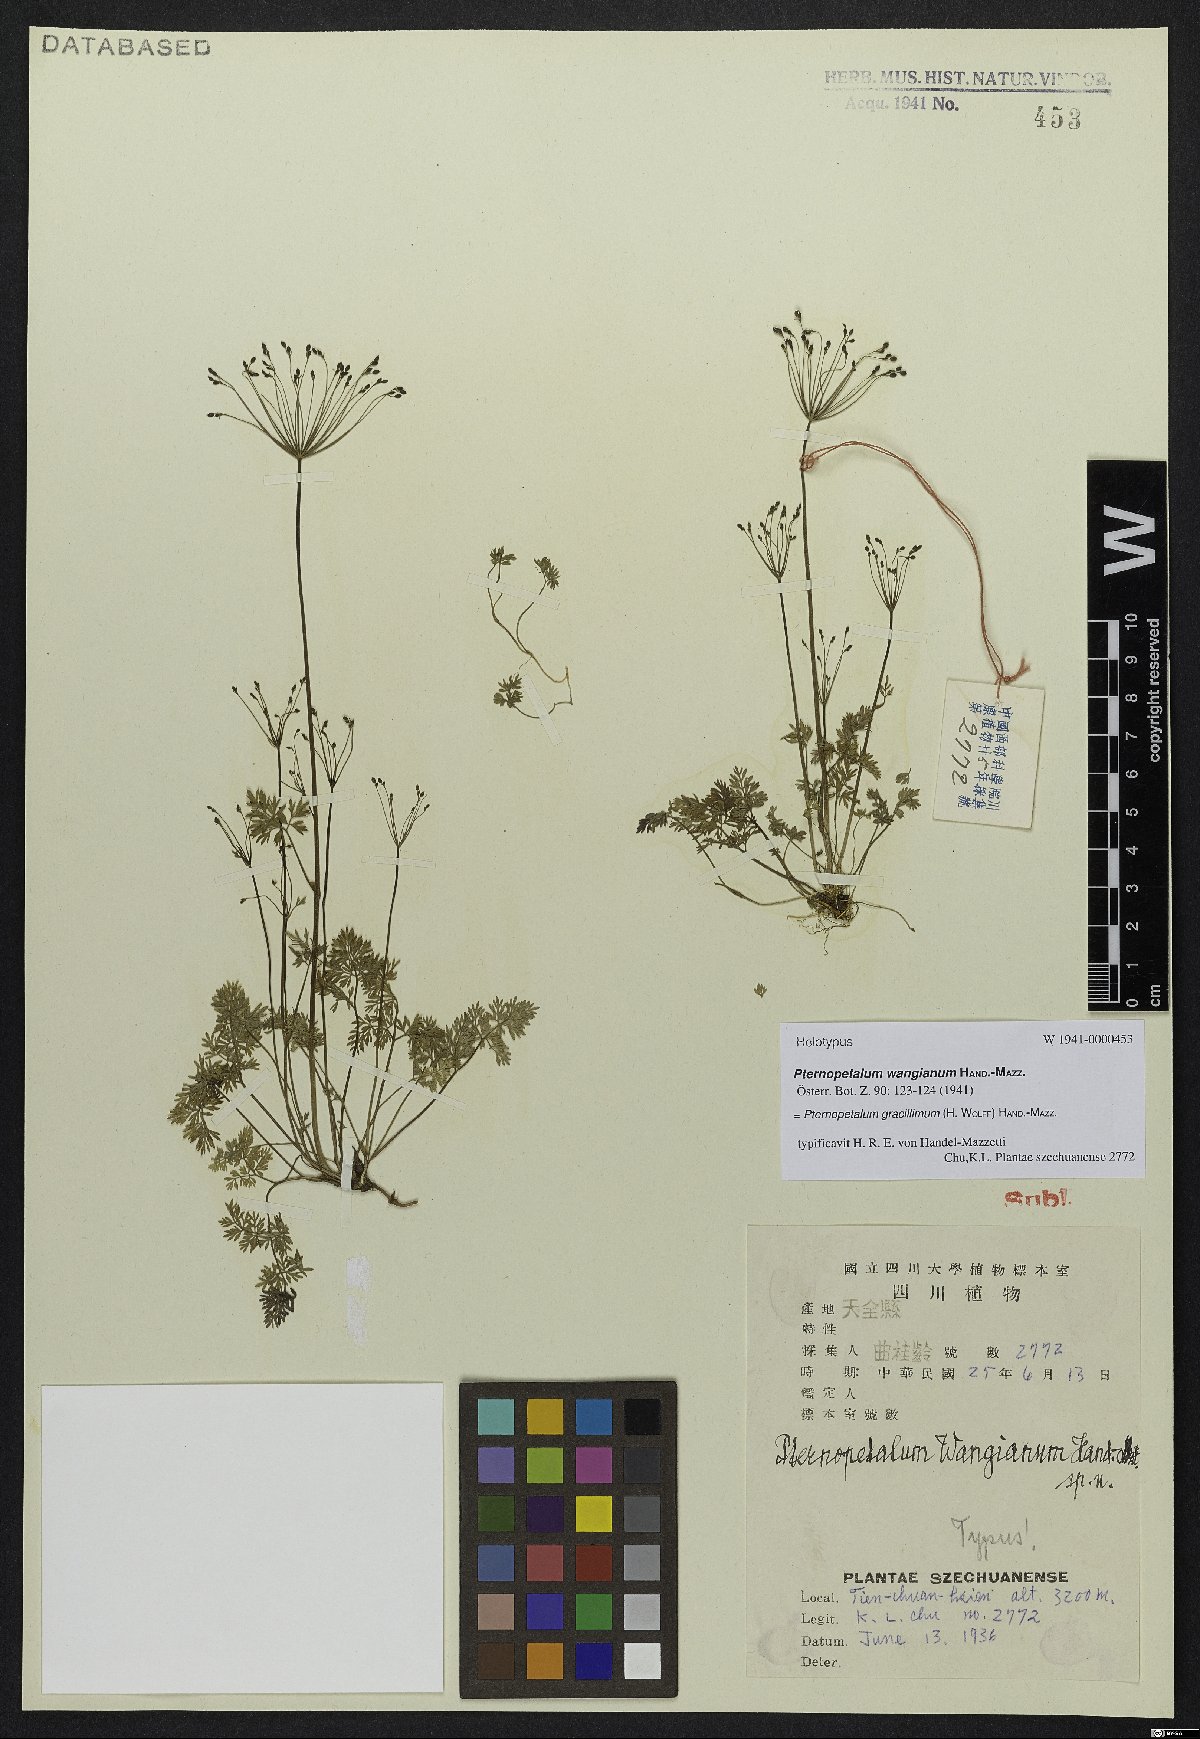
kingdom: Plantae
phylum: Tracheophyta
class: Magnoliopsida
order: Apiales
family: Apiaceae
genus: Pternopetalum
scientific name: Pternopetalum gracilimum
